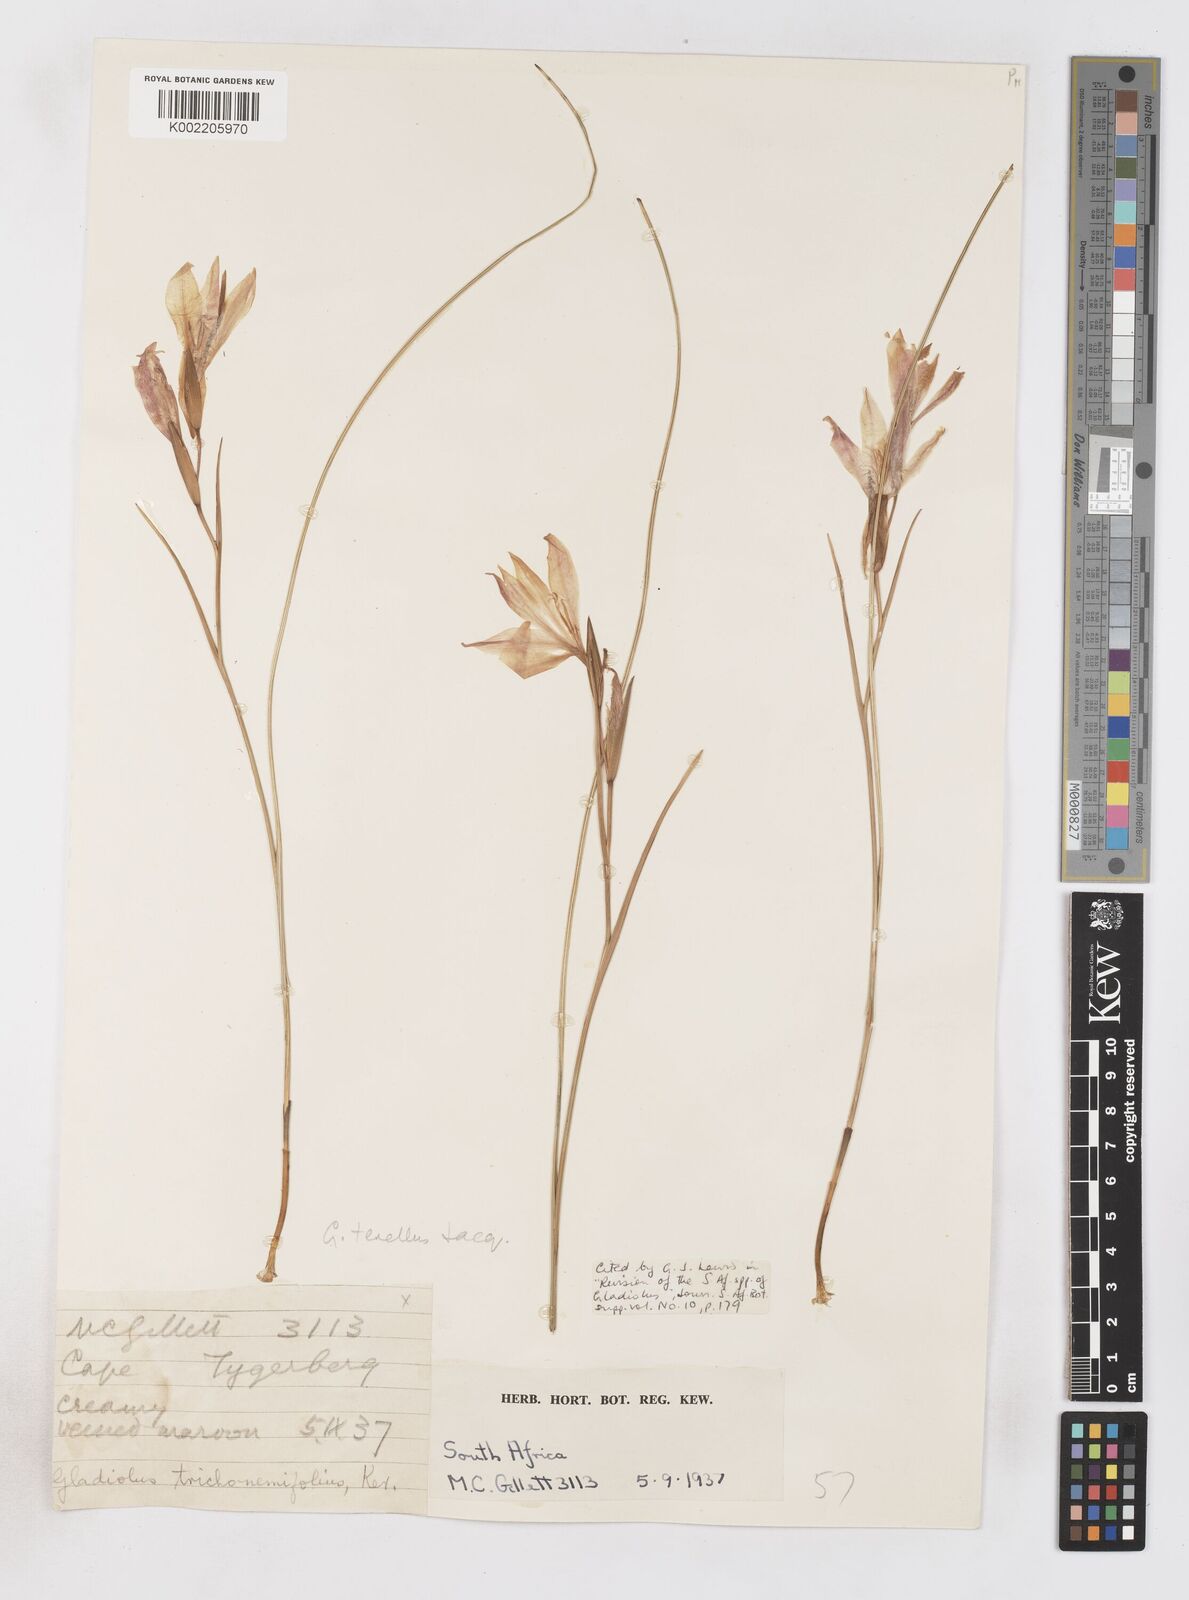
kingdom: Plantae
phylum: Tracheophyta
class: Liliopsida
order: Asparagales
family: Iridaceae
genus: Gladiolus
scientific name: Gladiolus carinatus
